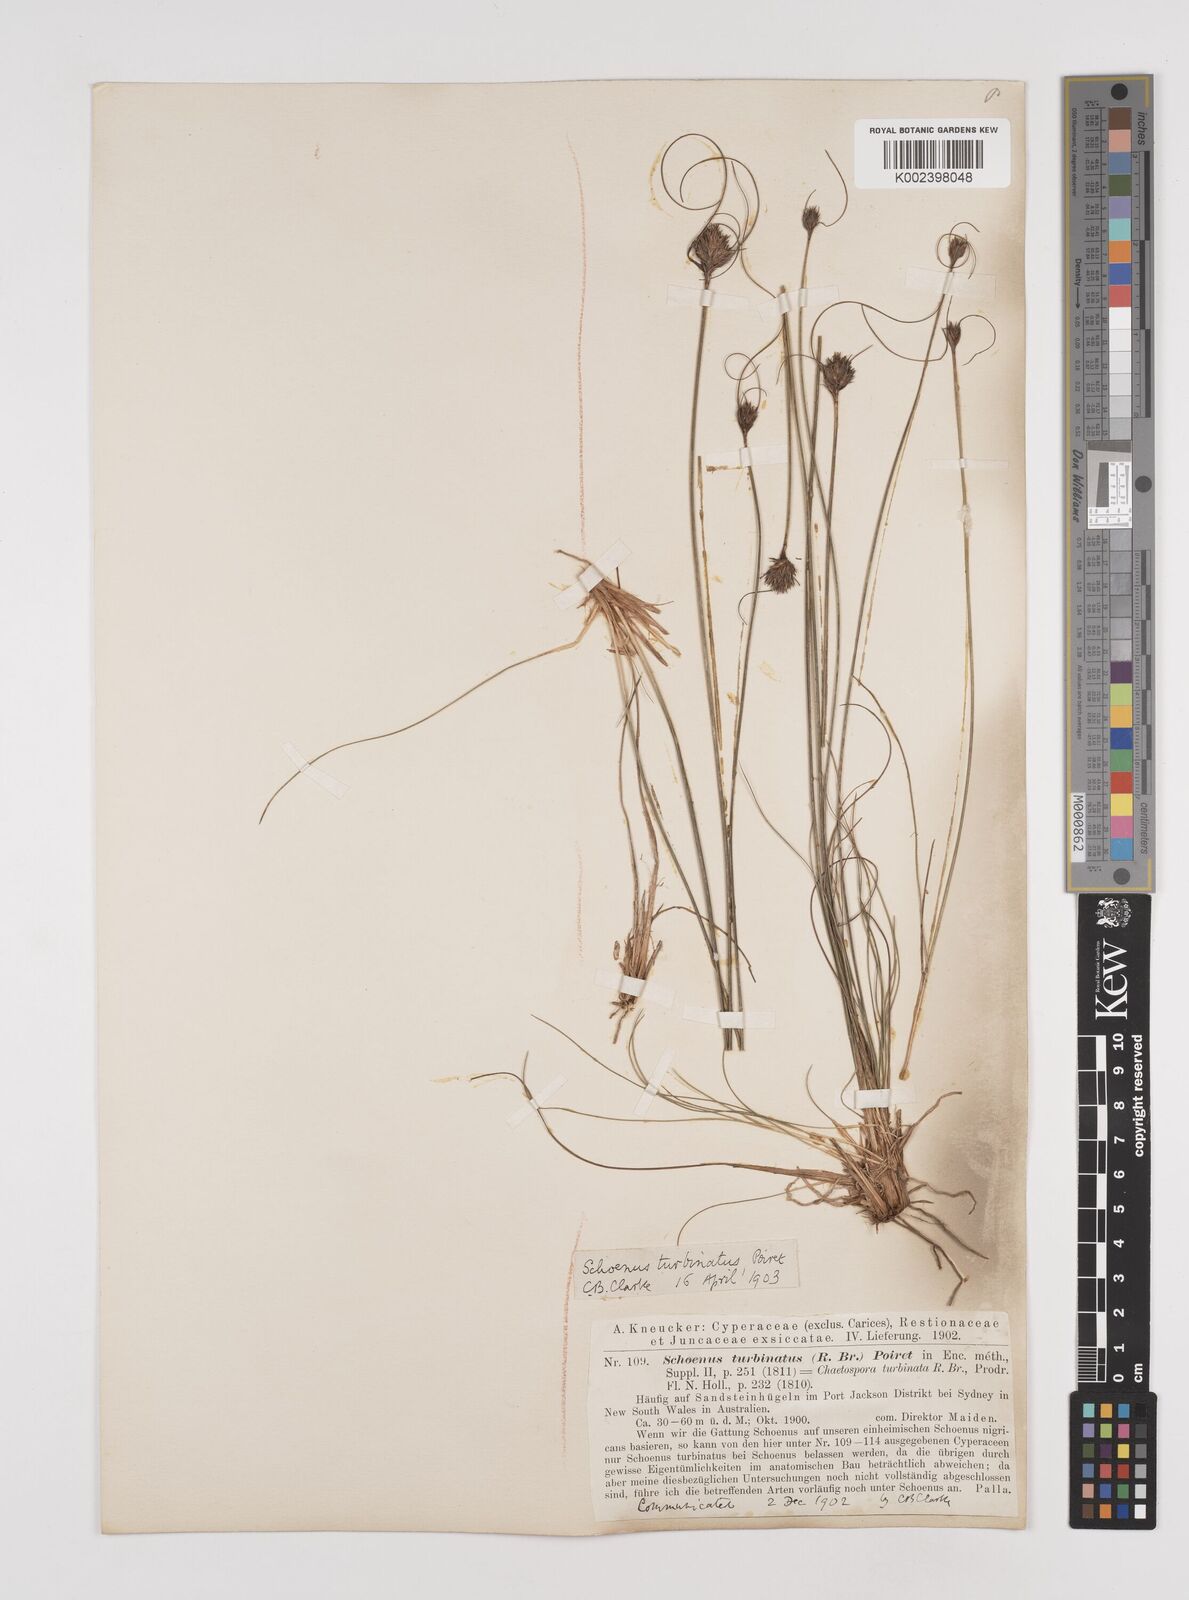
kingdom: Plantae
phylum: Tracheophyta
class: Liliopsida
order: Poales
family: Cyperaceae
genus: Schoenus
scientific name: Schoenus turbinatus
